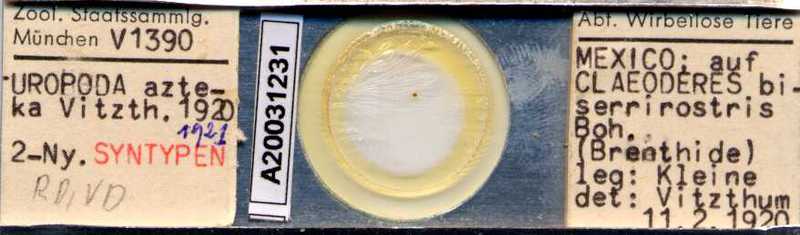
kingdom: Animalia
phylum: Arthropoda
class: Arachnida
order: Mesostigmata
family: Uropodidae
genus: Uropoda
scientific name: Uropoda
